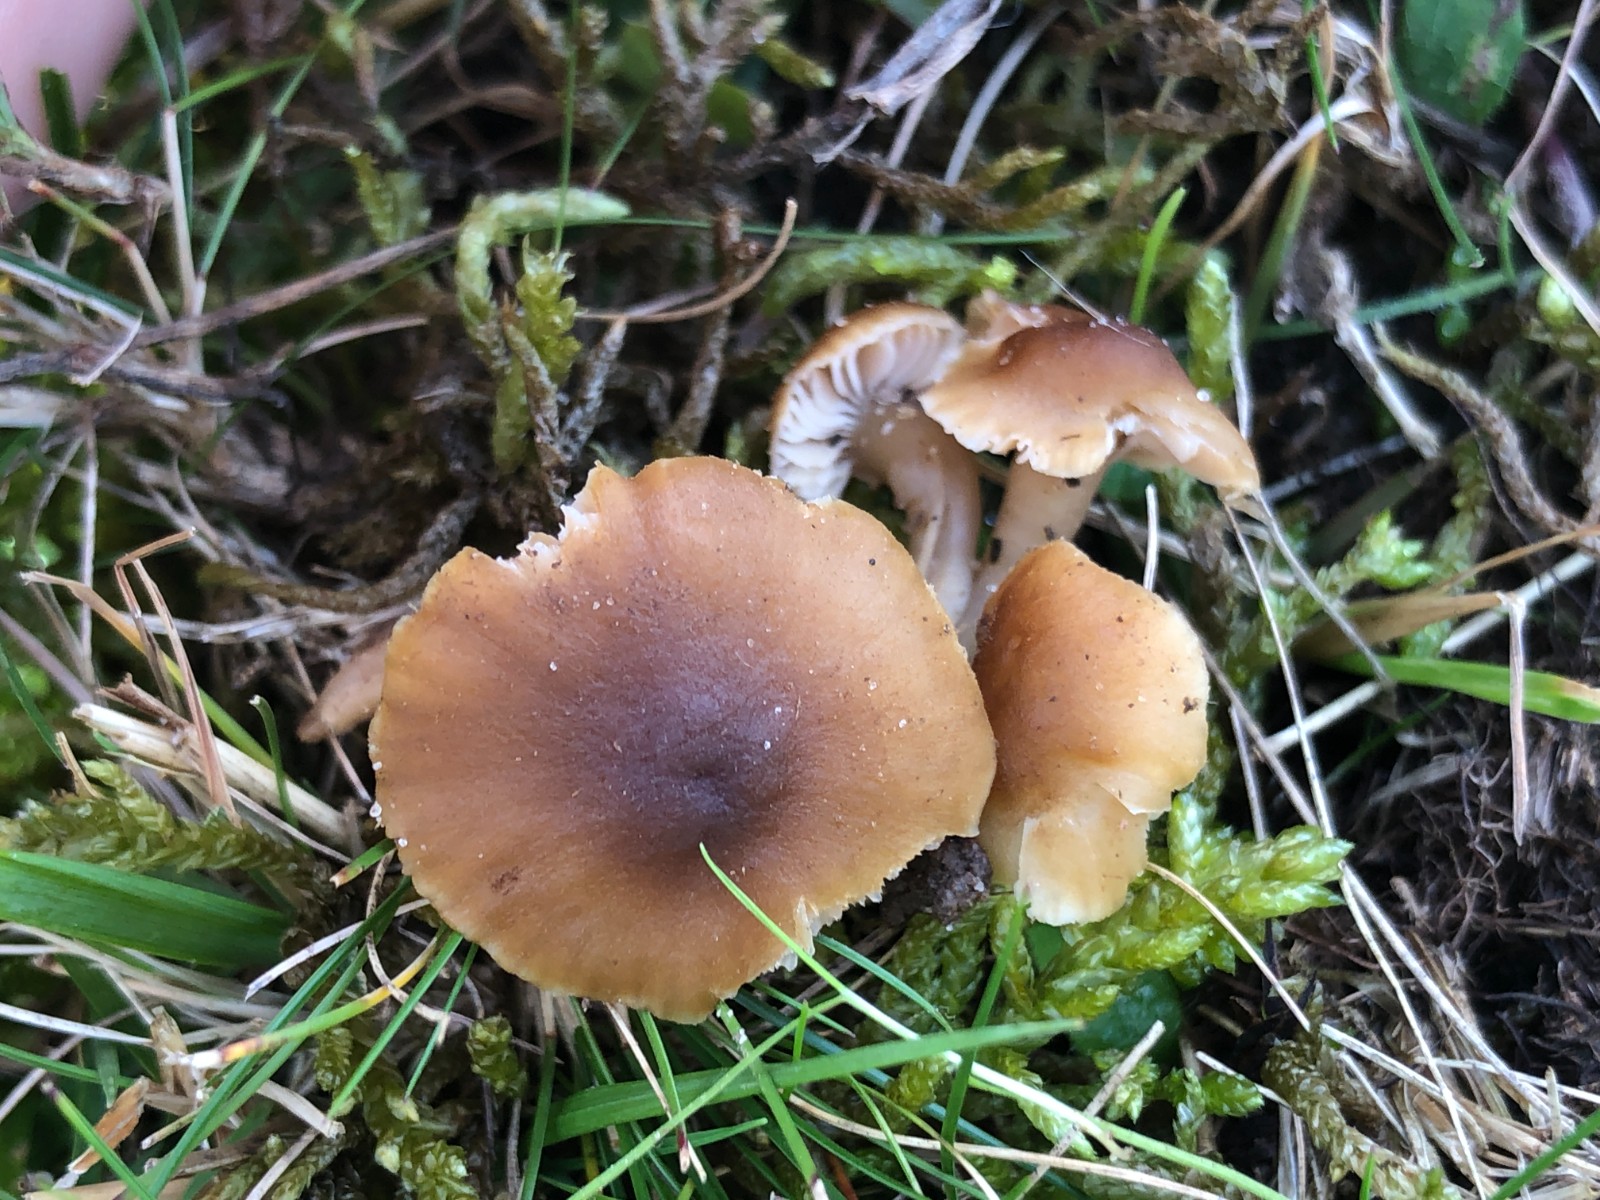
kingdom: Fungi
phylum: Basidiomycota
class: Agaricomycetes
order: Agaricales
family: Clavariaceae
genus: Camarophyllopsis
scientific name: Camarophyllopsis schulzeri
